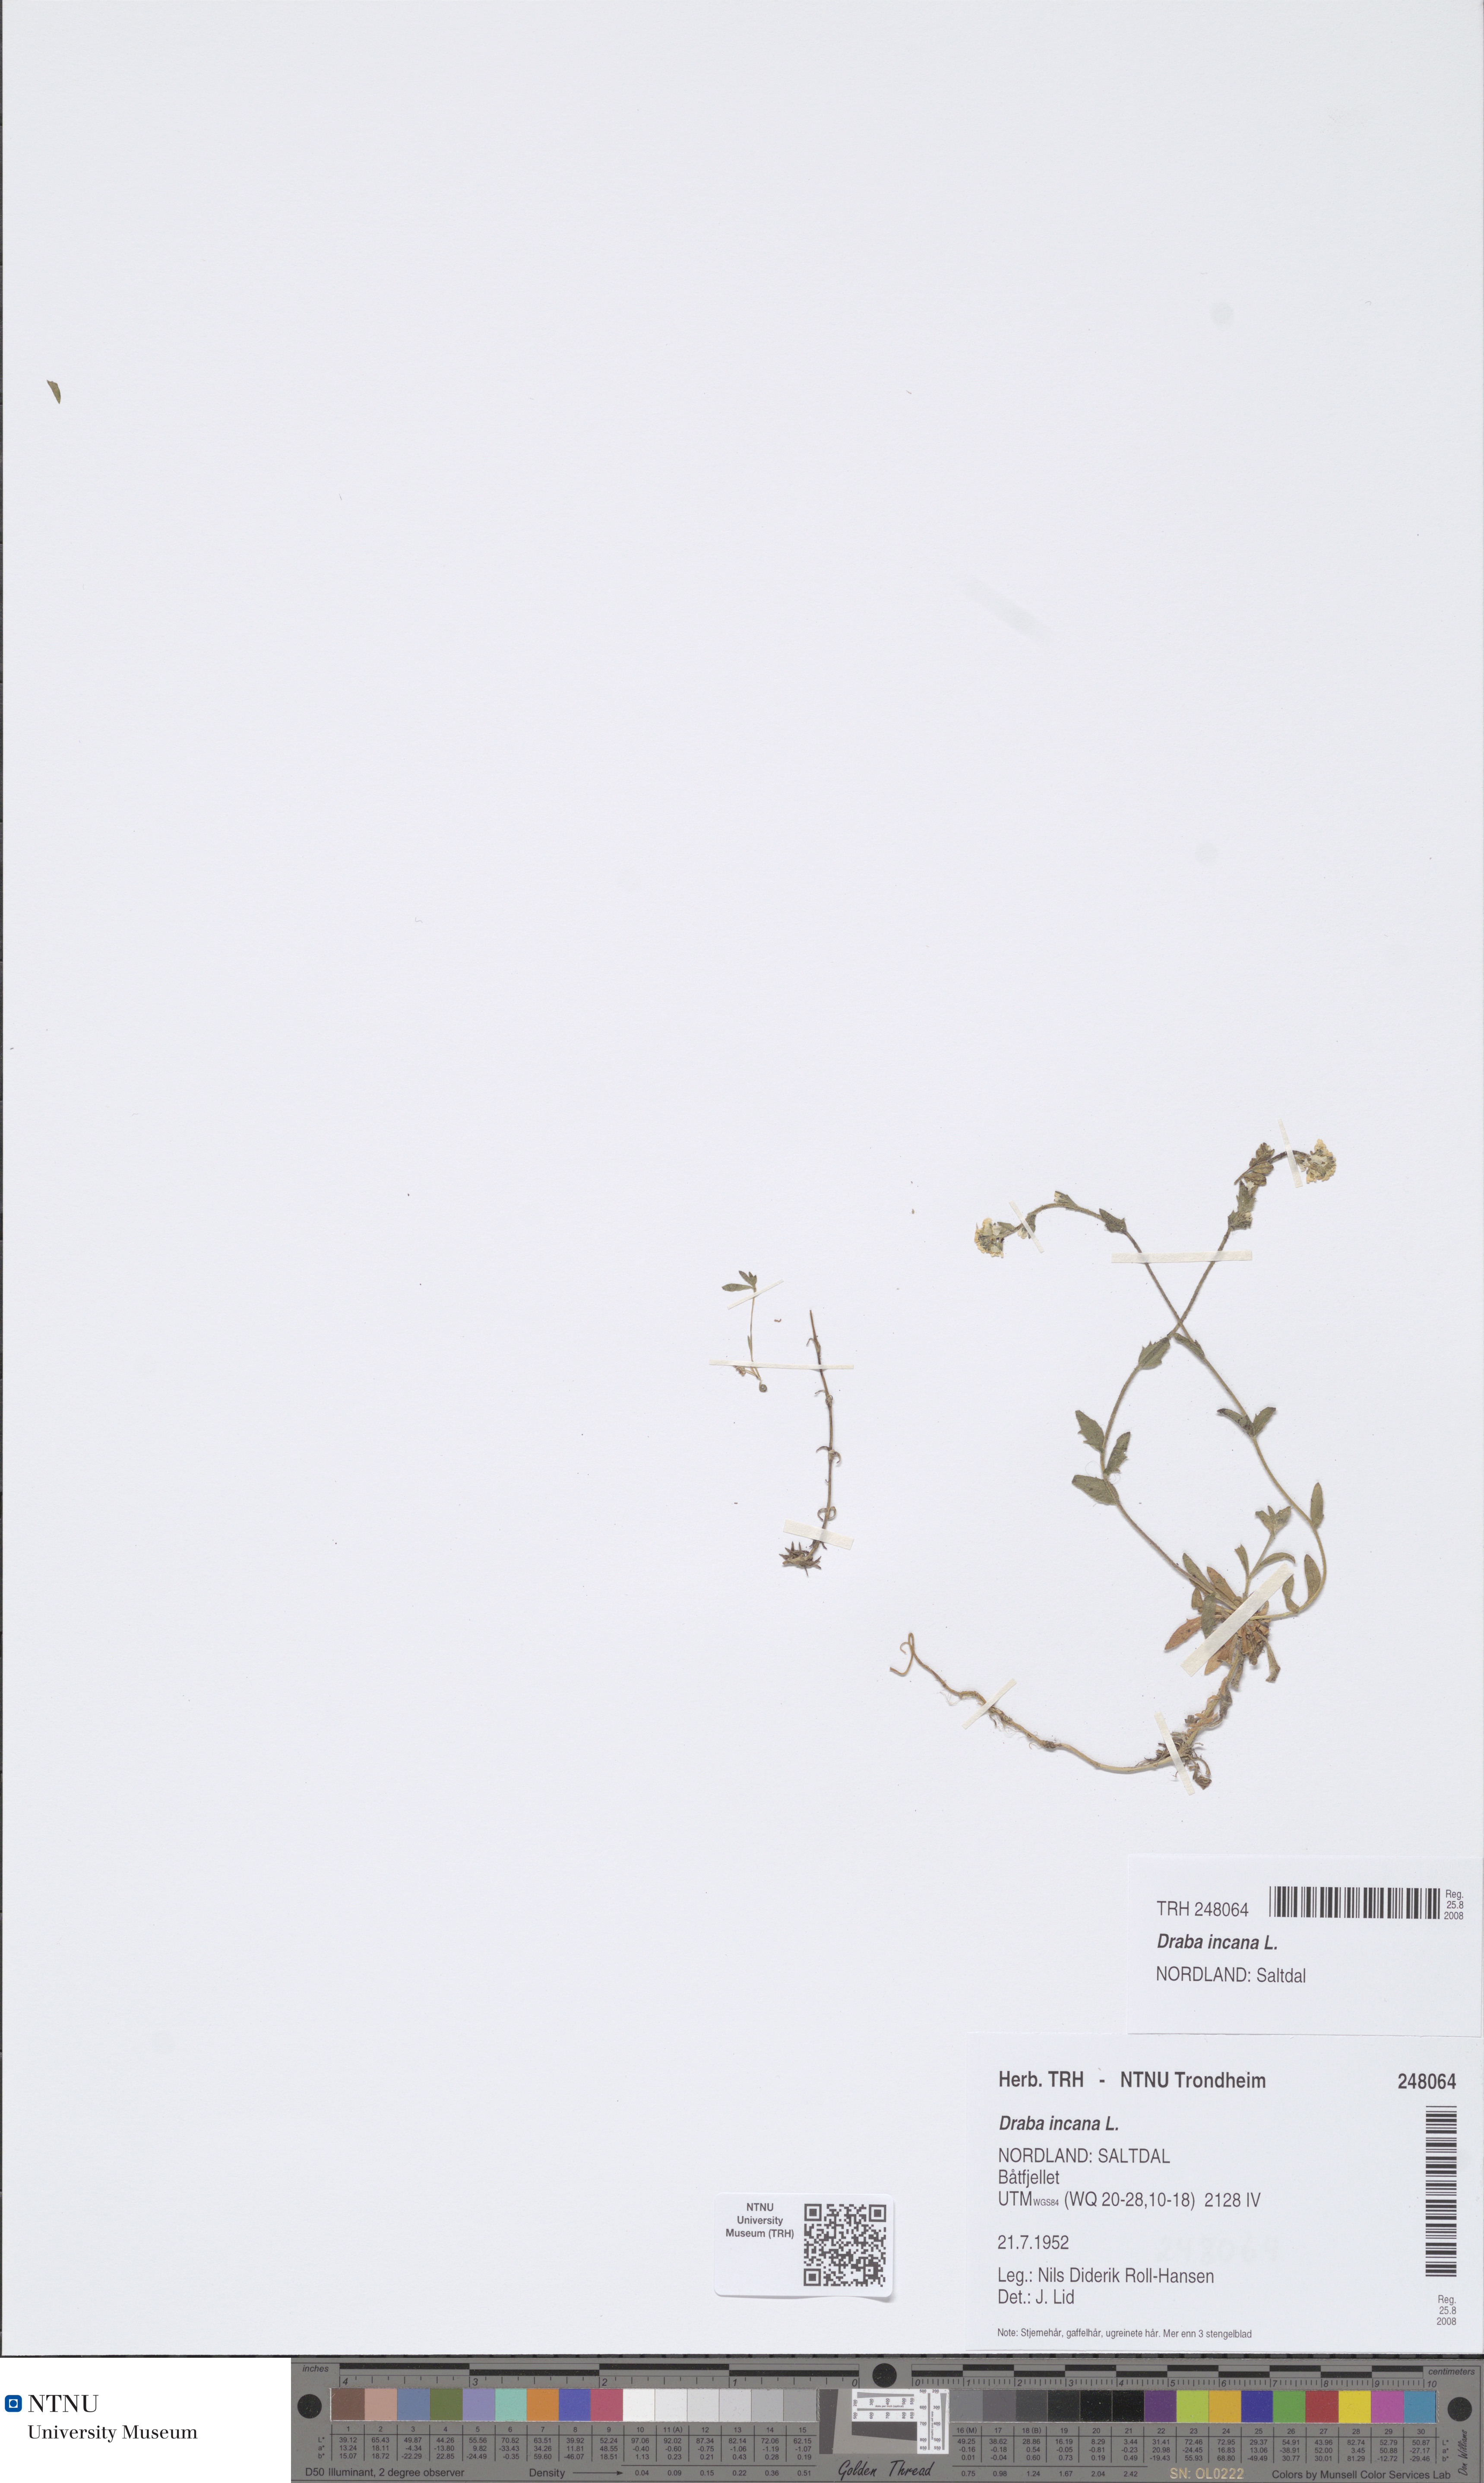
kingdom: Plantae
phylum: Tracheophyta
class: Magnoliopsida
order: Brassicales
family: Brassicaceae
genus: Draba
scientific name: Draba incana
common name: Hoary whitlow-grass
